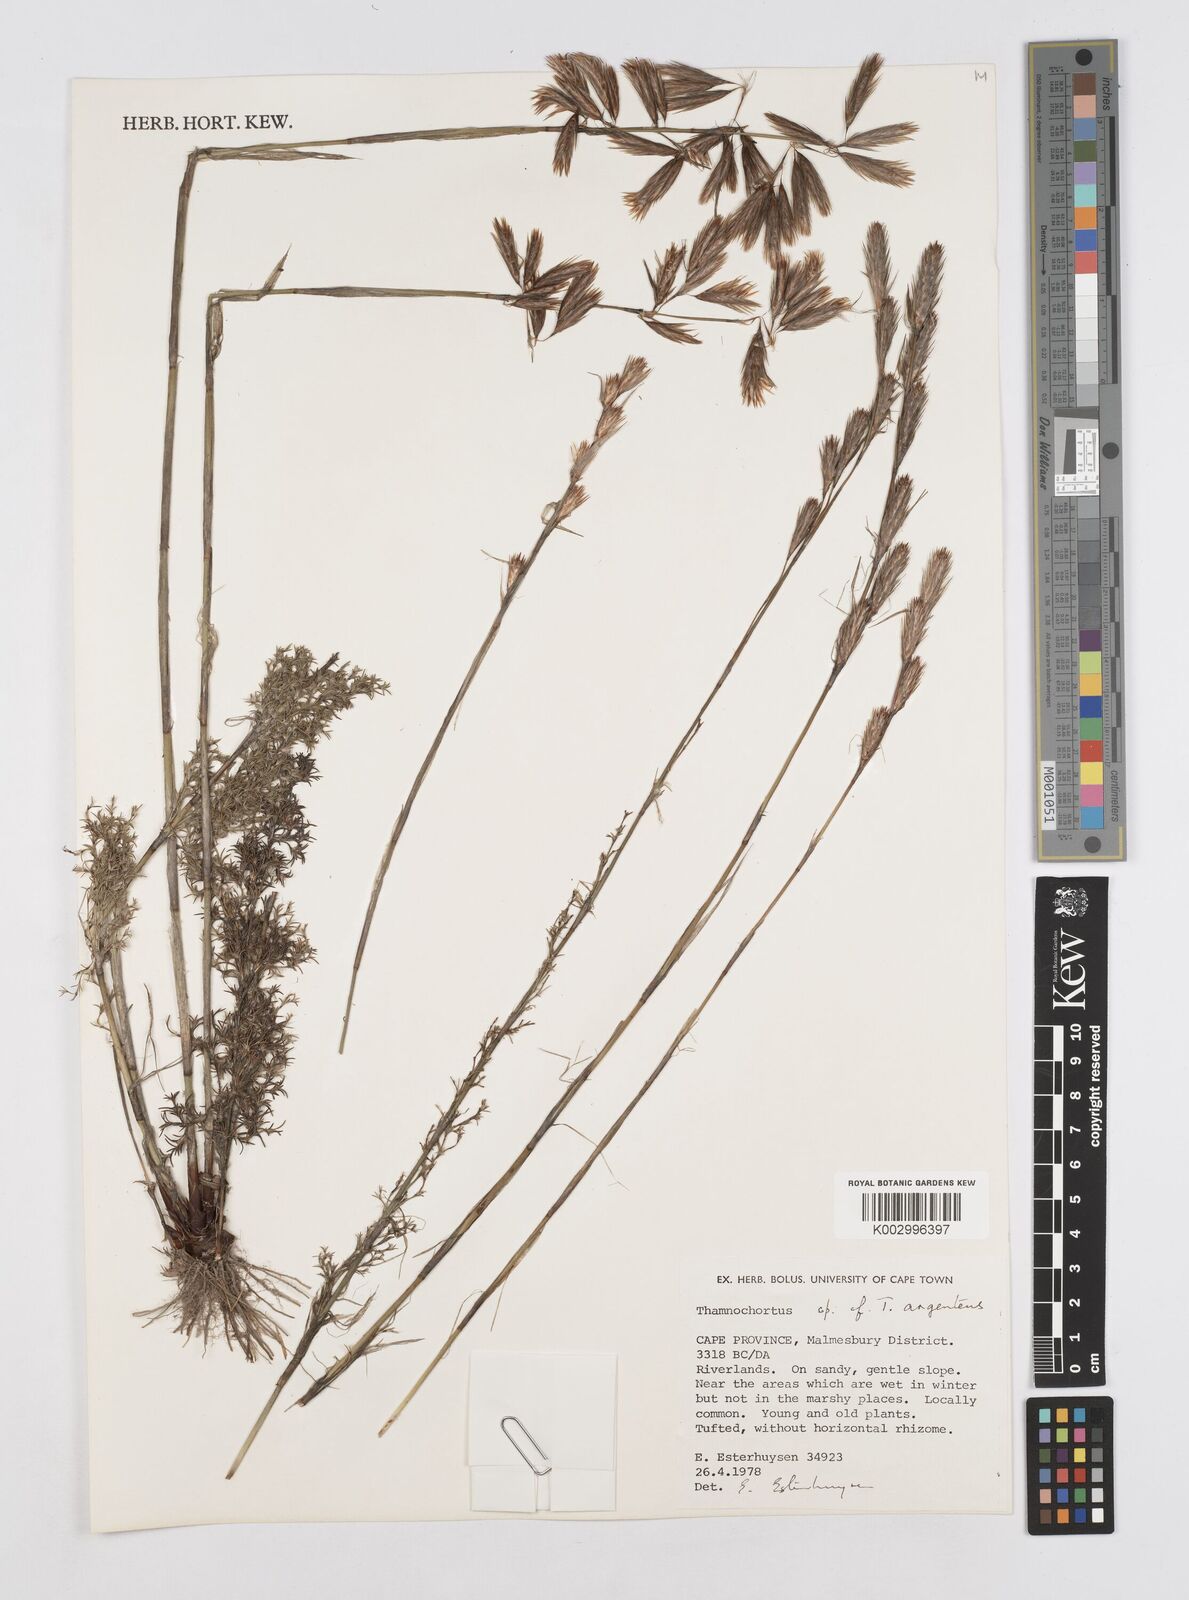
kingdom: Plantae
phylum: Tracheophyta
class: Liliopsida
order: Poales
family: Restionaceae
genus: Hypodiscus
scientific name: Hypodiscus argenteus
